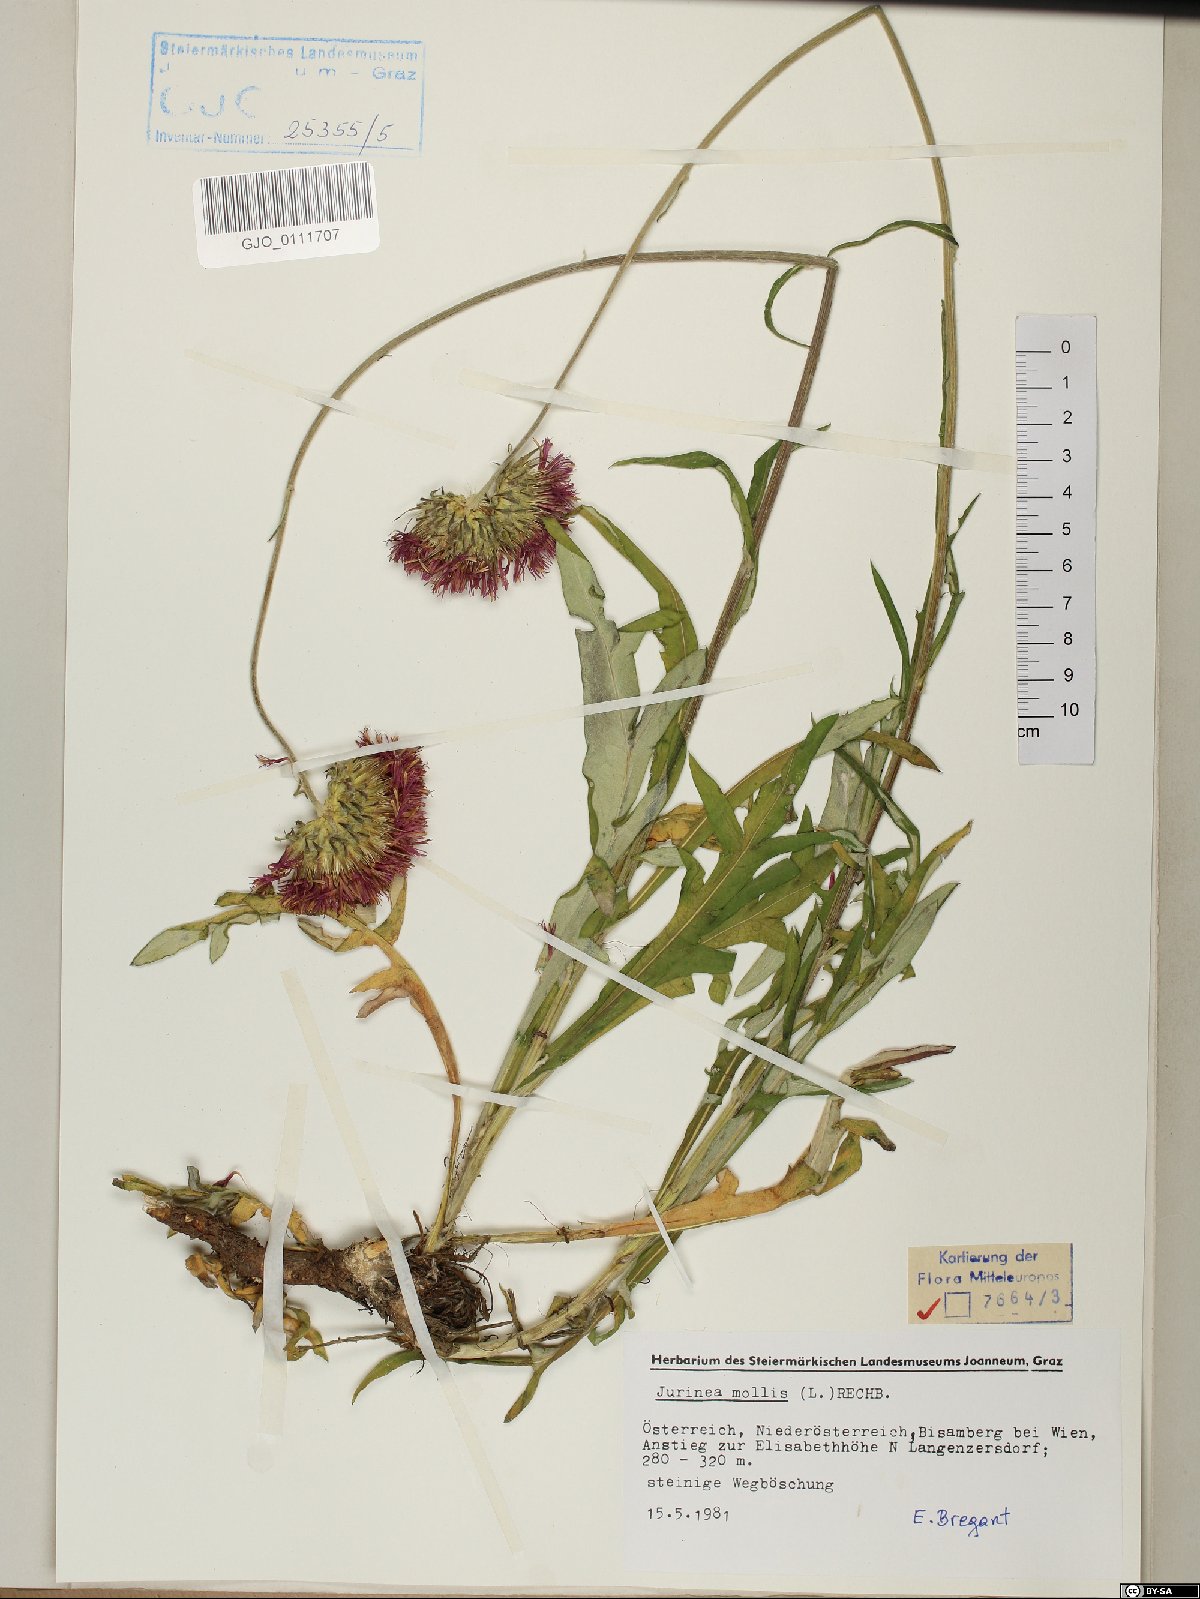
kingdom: Plantae
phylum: Tracheophyta
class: Magnoliopsida
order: Asterales
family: Asteraceae
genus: Jurinea
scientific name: Jurinea mollis
